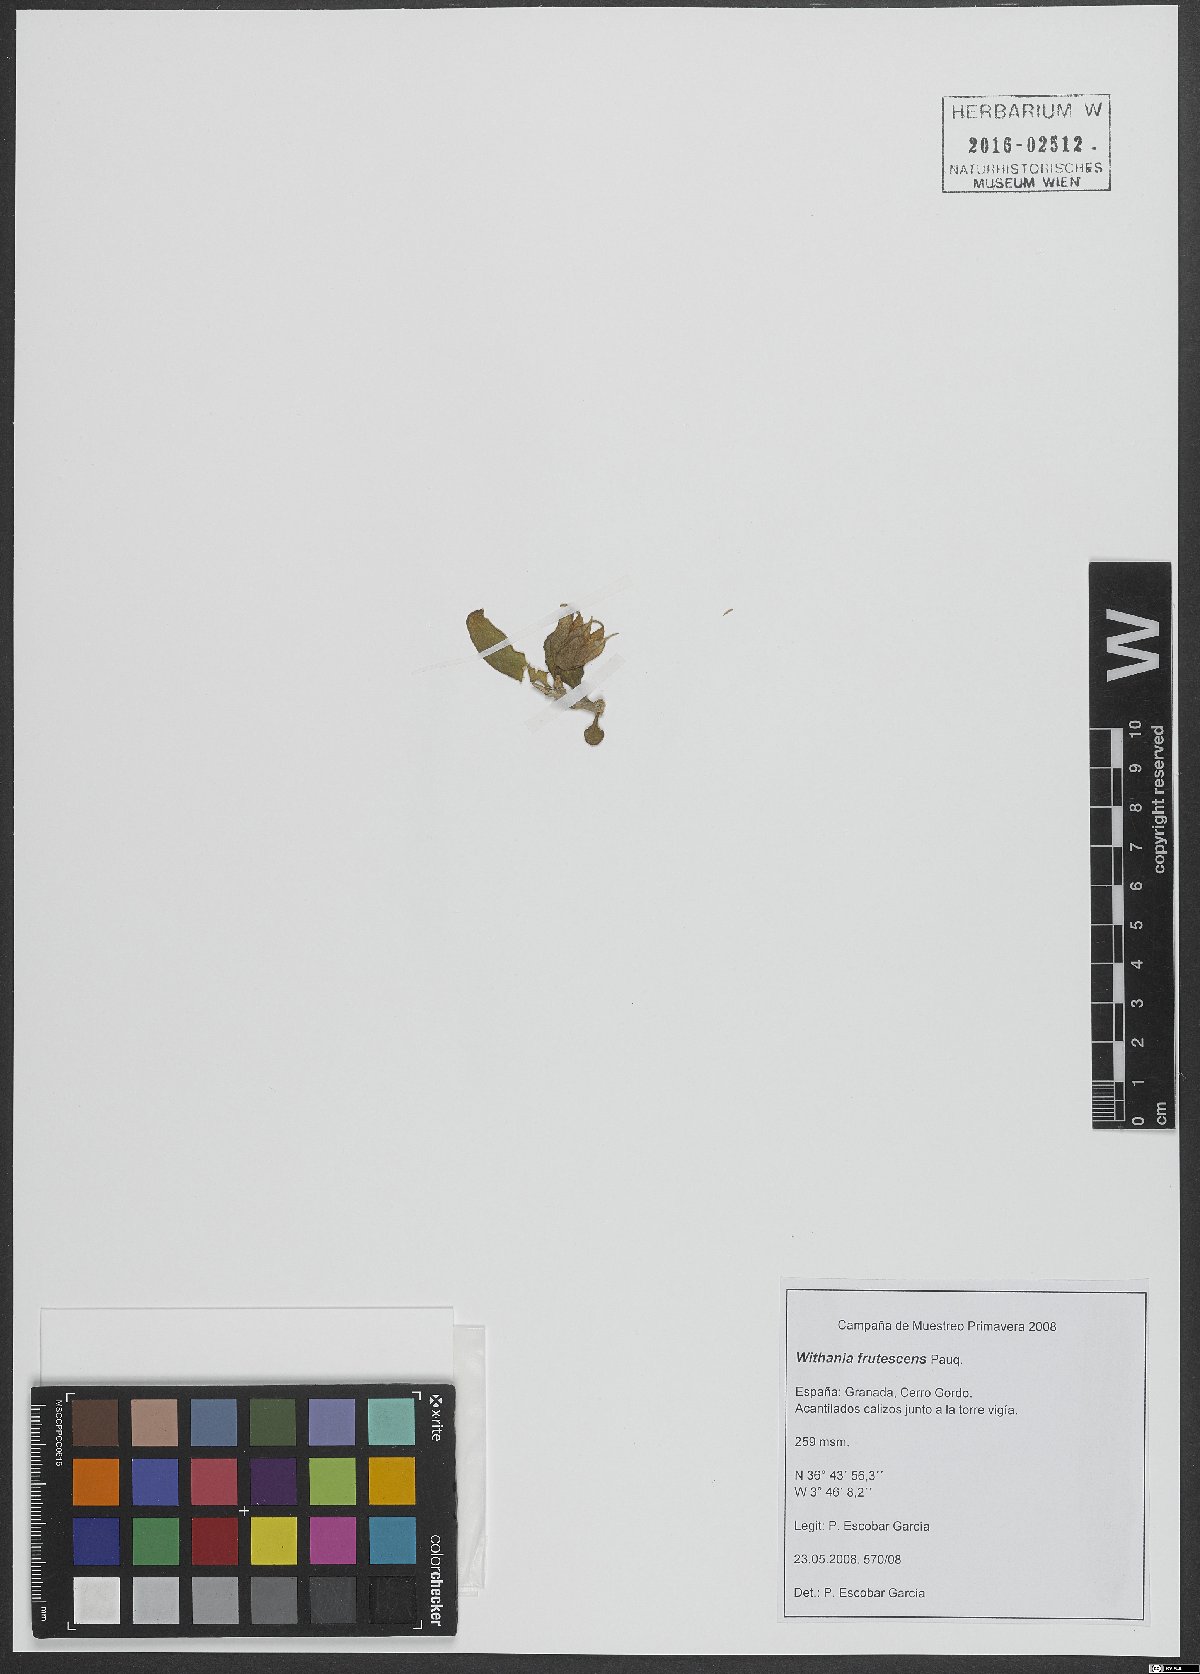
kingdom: Plantae
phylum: Tracheophyta
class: Magnoliopsida
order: Solanales
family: Solanaceae
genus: Withania
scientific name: Withania frutescens
